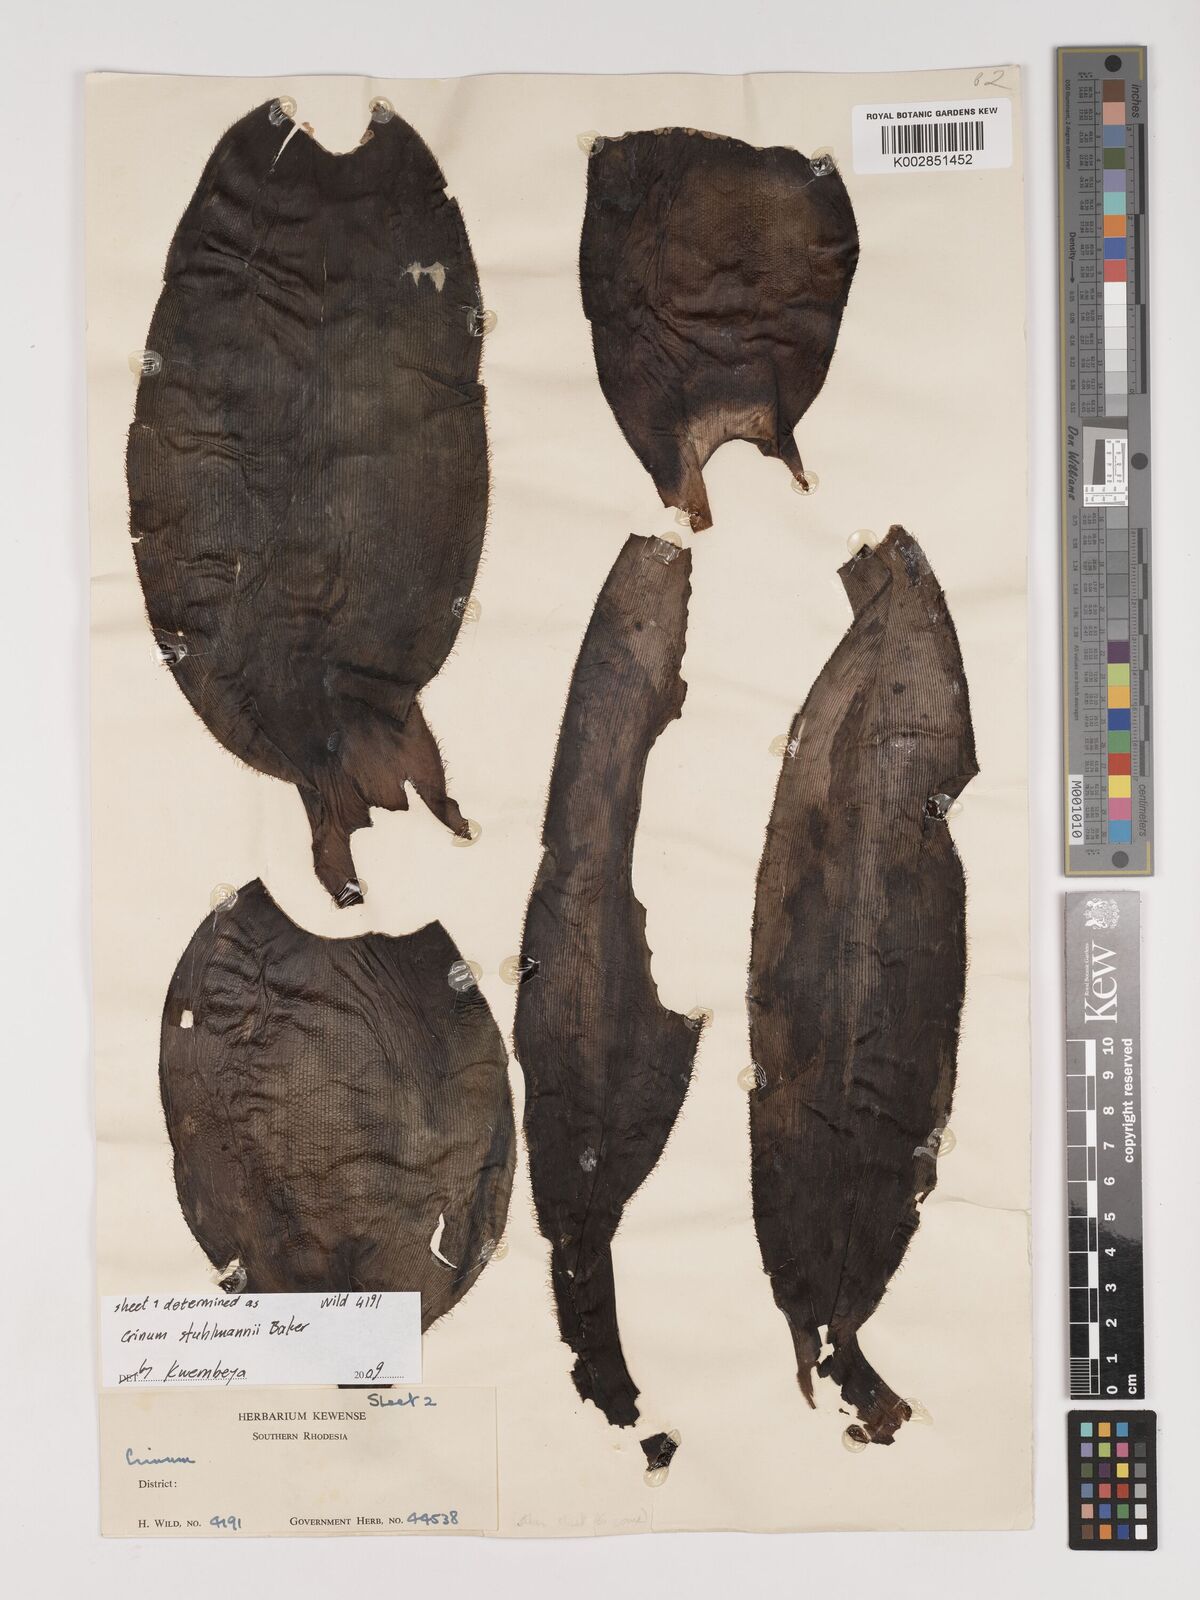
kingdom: Plantae
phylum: Tracheophyta
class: Liliopsida
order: Asparagales
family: Amaryllidaceae
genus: Crinum
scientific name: Crinum stuhlmannii
